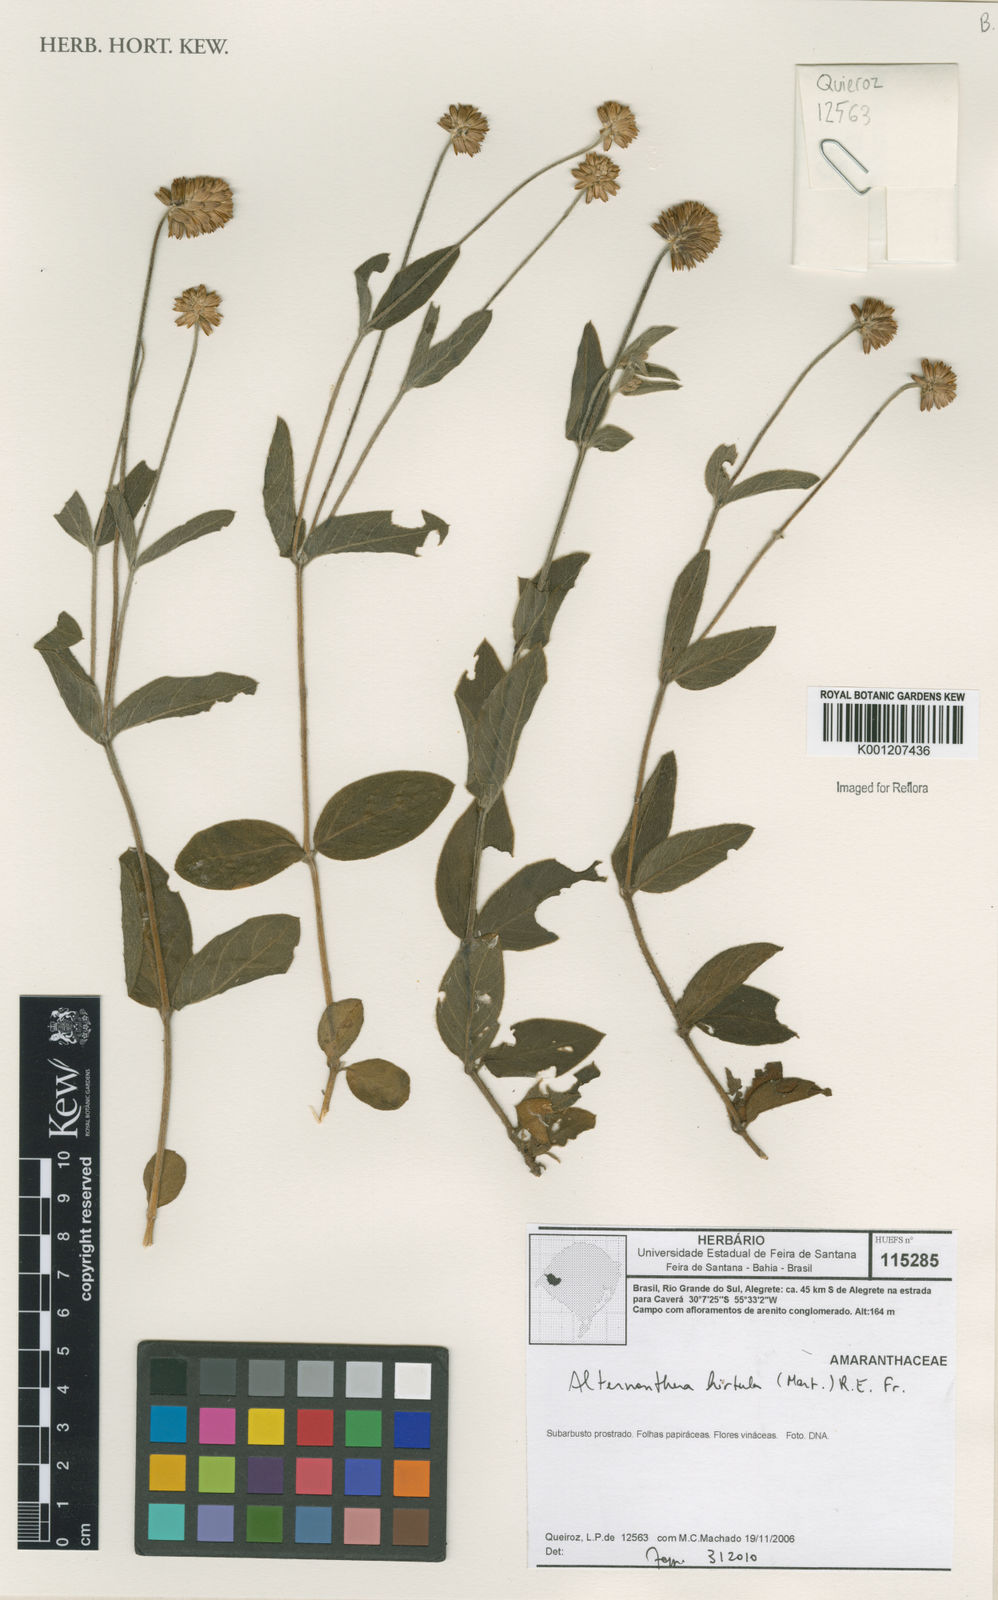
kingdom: Plantae
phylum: Tracheophyta
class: Magnoliopsida
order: Caryophyllales
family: Amaranthaceae
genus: Alternanthera
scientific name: Alternanthera hirtula
